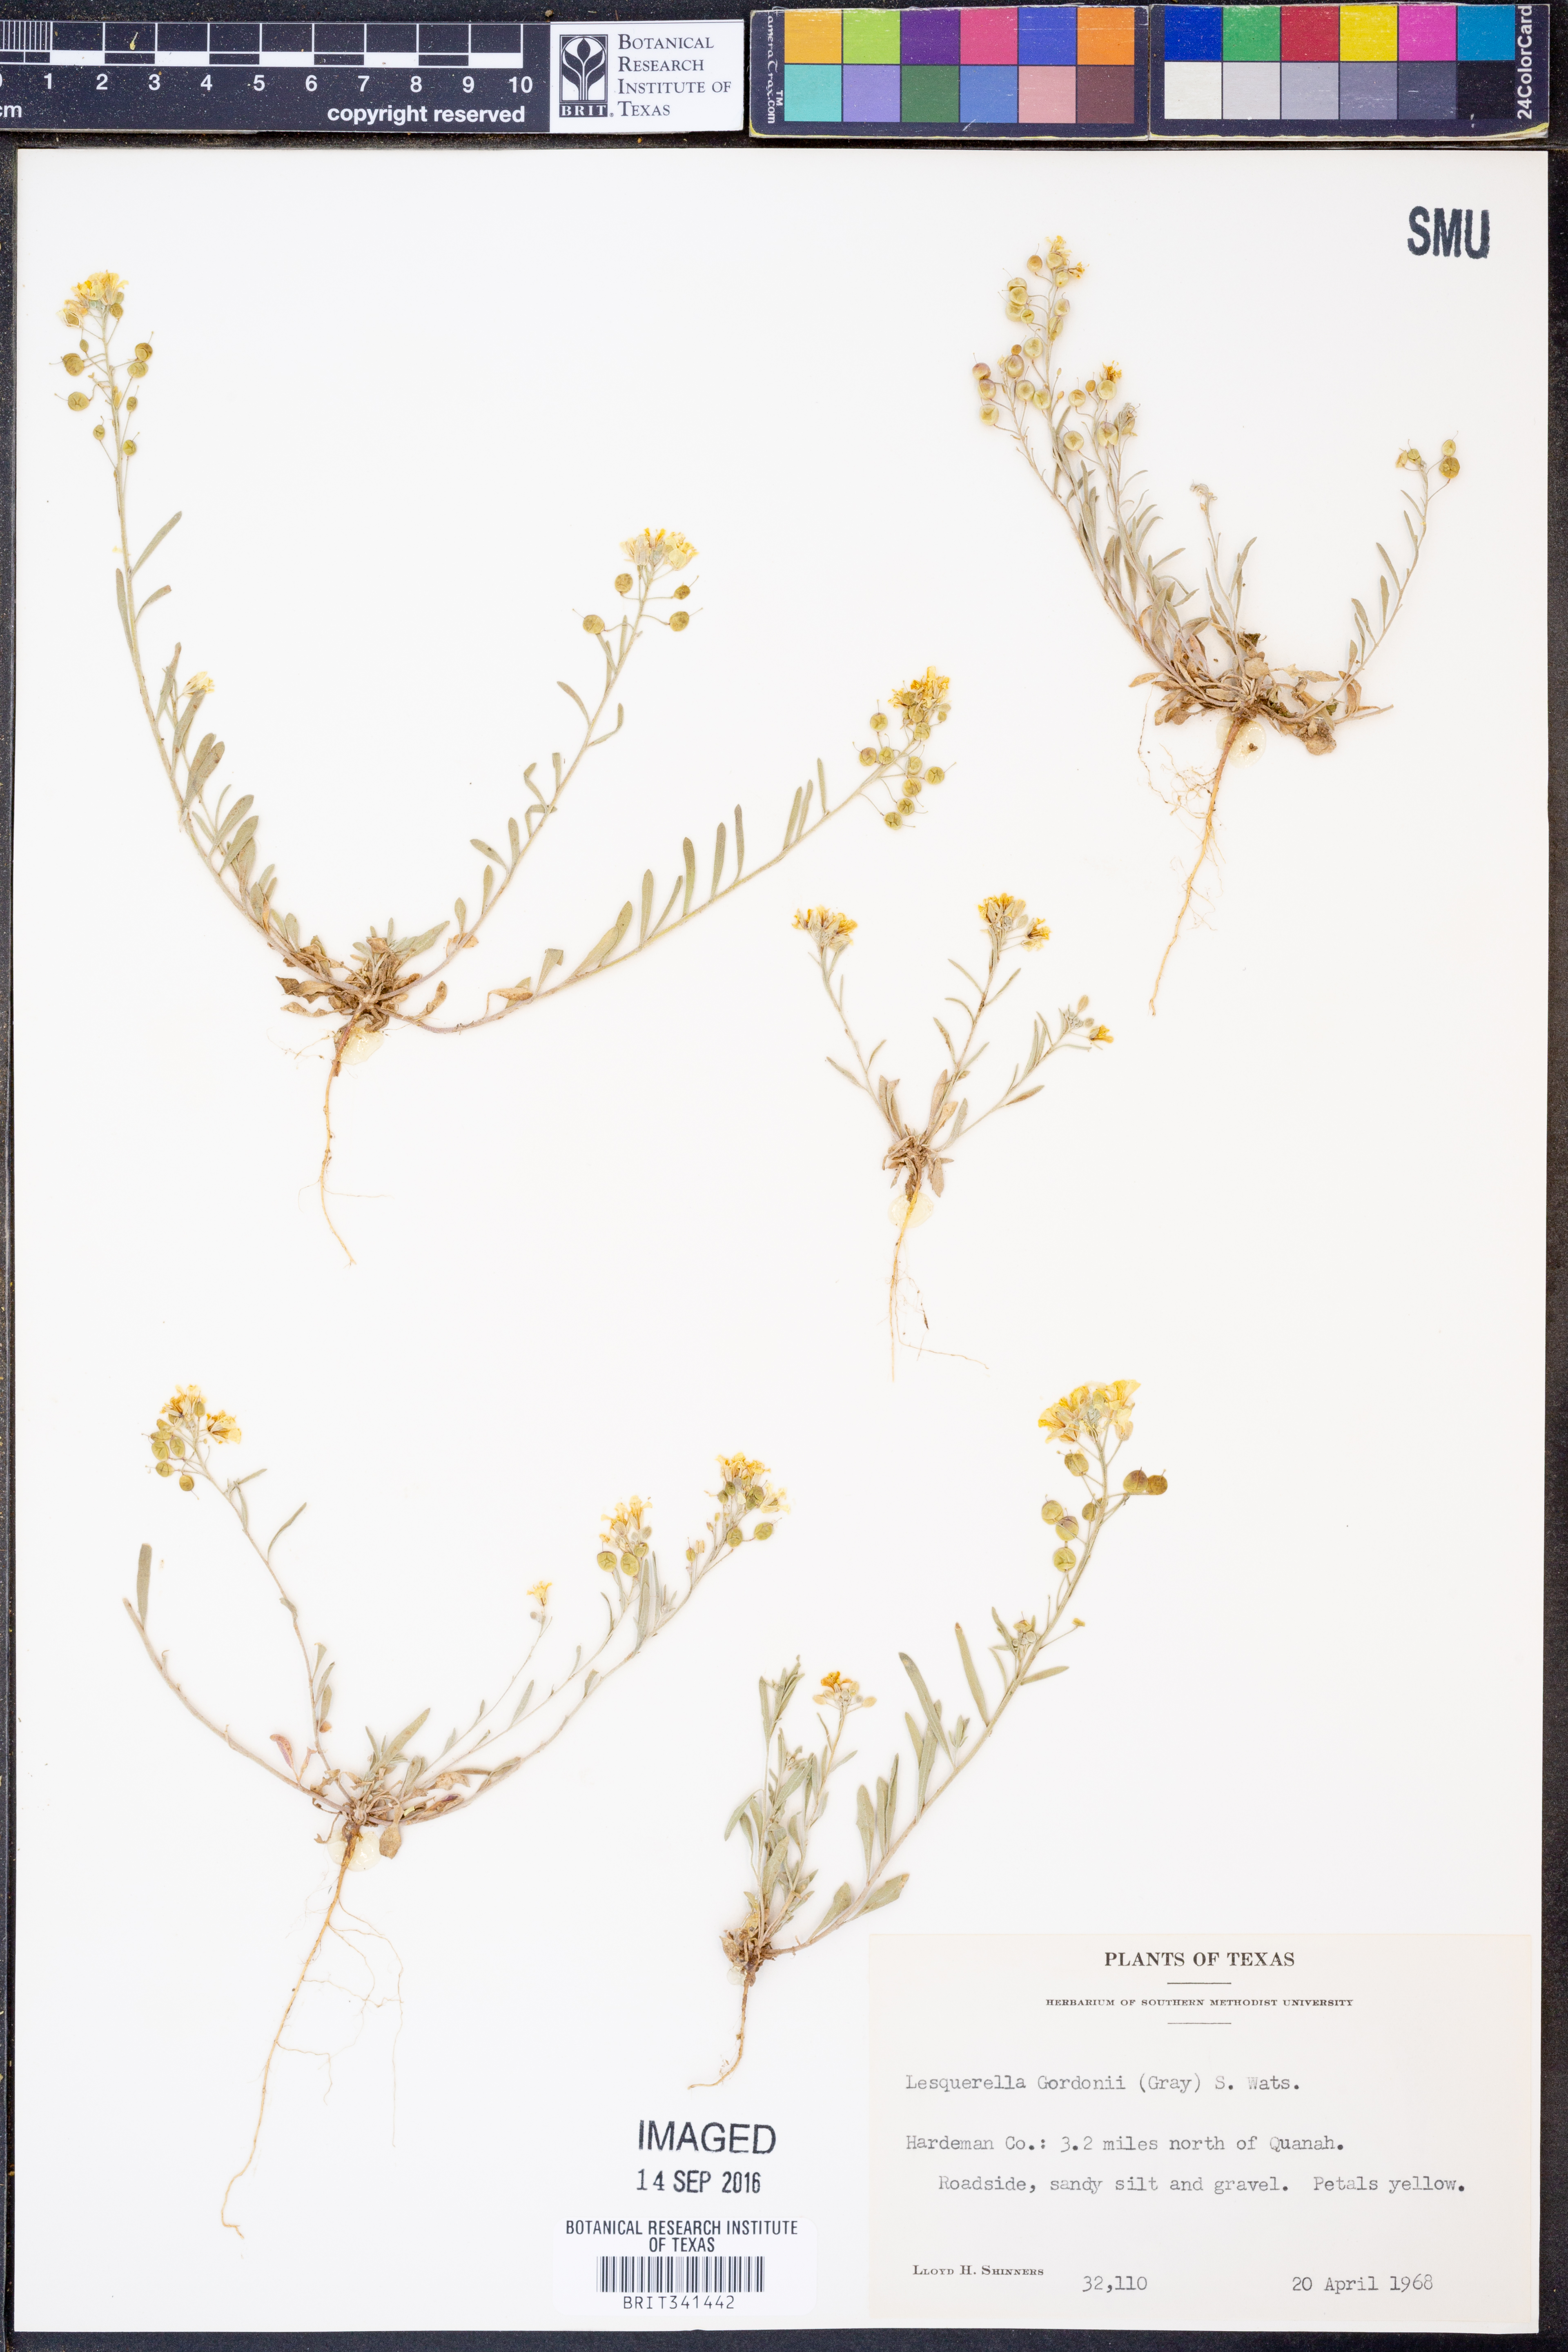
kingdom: Plantae
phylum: Tracheophyta
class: Magnoliopsida
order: Brassicales
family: Brassicaceae
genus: Physaria
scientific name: Physaria gordonii
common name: Gordon's bladderpod
